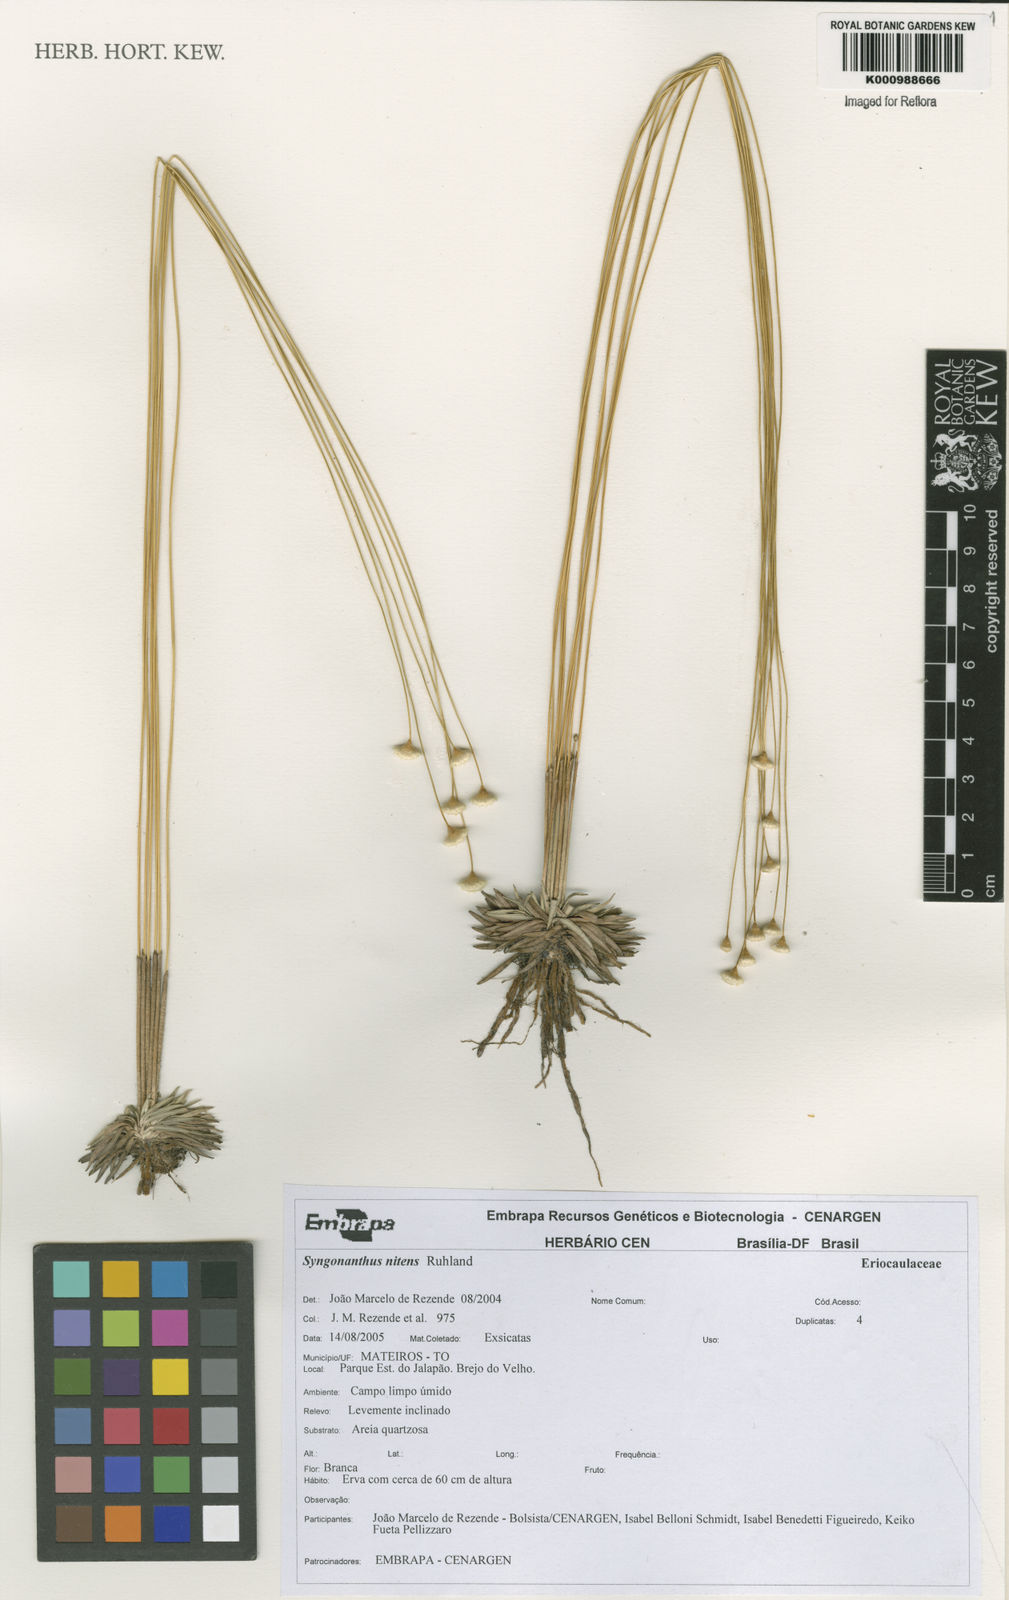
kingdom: Plantae
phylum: Tracheophyta
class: Liliopsida
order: Poales
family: Eriocaulaceae
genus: Syngonanthus
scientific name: Syngonanthus nitens
